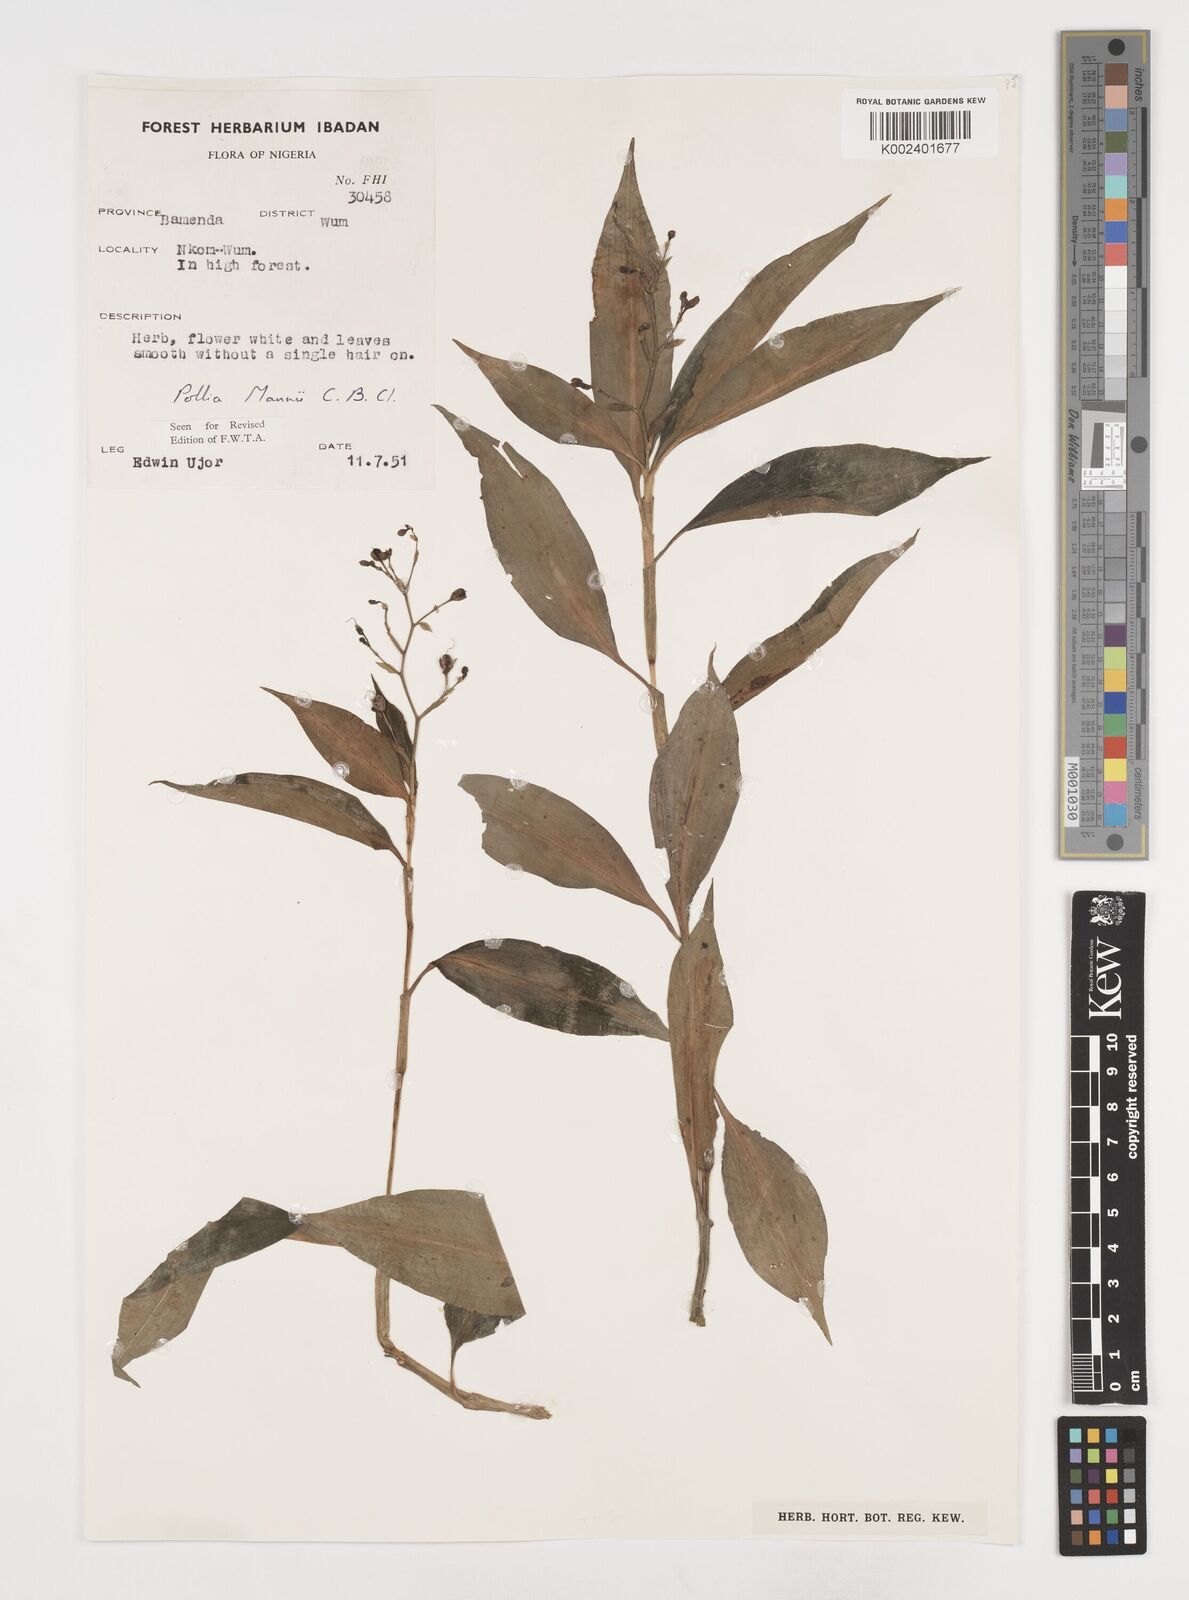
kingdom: Plantae
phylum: Tracheophyta
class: Liliopsida
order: Commelinales
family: Commelinaceae
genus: Pollia
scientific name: Pollia mannii
